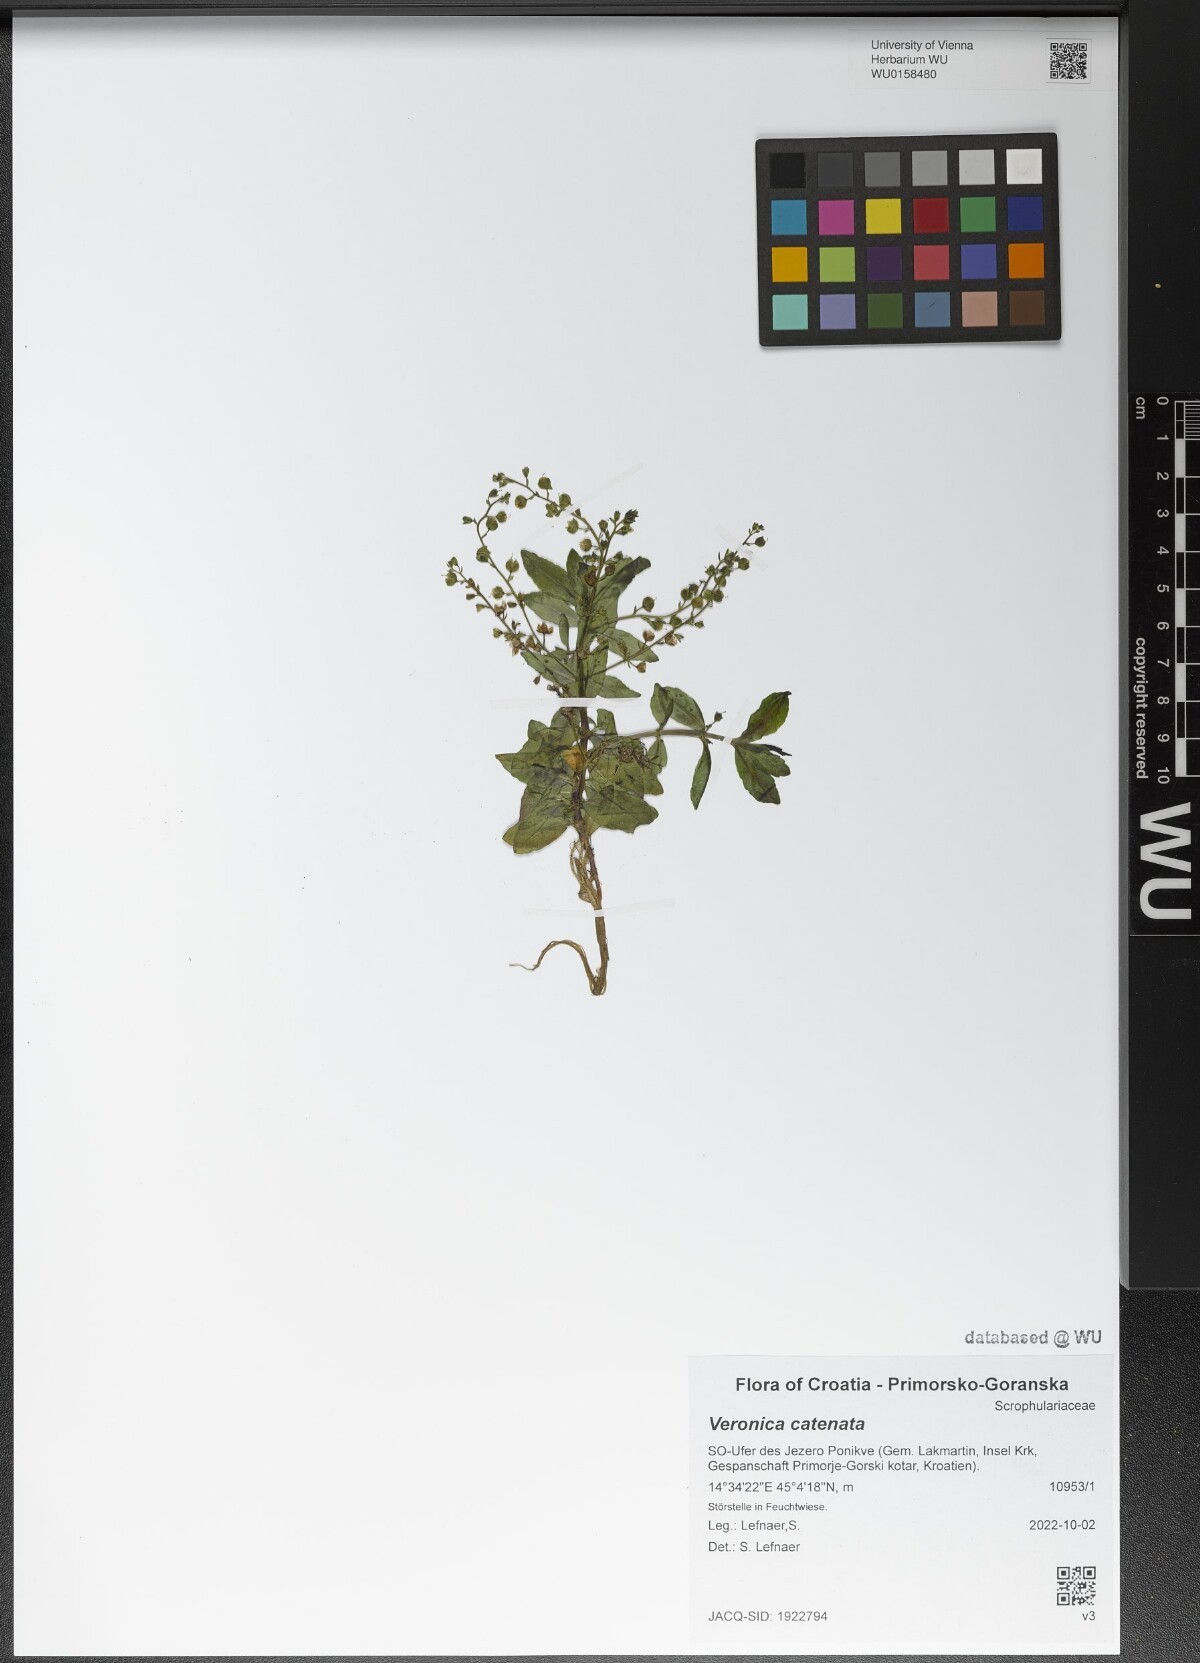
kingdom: Plantae
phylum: Tracheophyta
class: Magnoliopsida
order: Lamiales
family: Plantaginaceae
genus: Veronica
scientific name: Veronica catenata
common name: Pink water-speedwell
